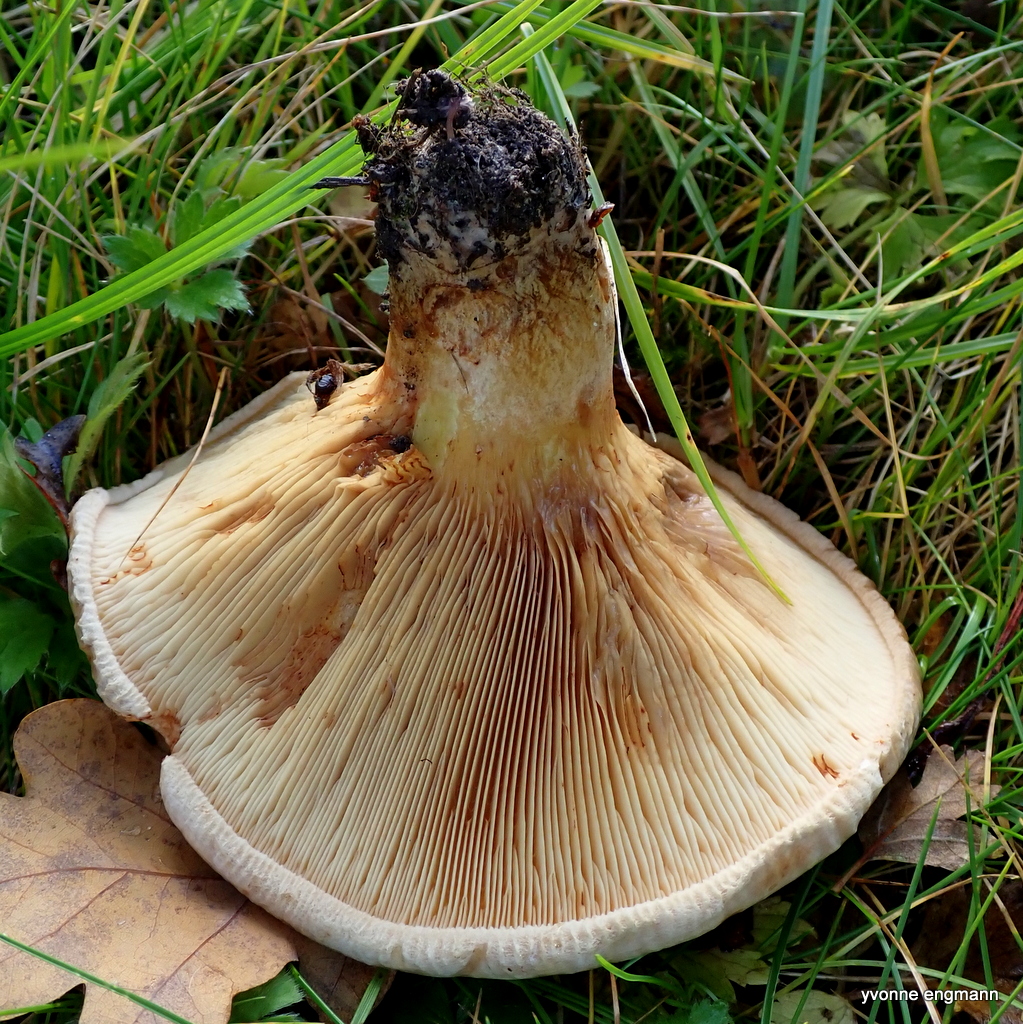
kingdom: Fungi
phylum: Basidiomycota
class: Agaricomycetes
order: Boletales
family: Paxillaceae
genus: Paxillus
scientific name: Paxillus involutus
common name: almindelig netbladhat
